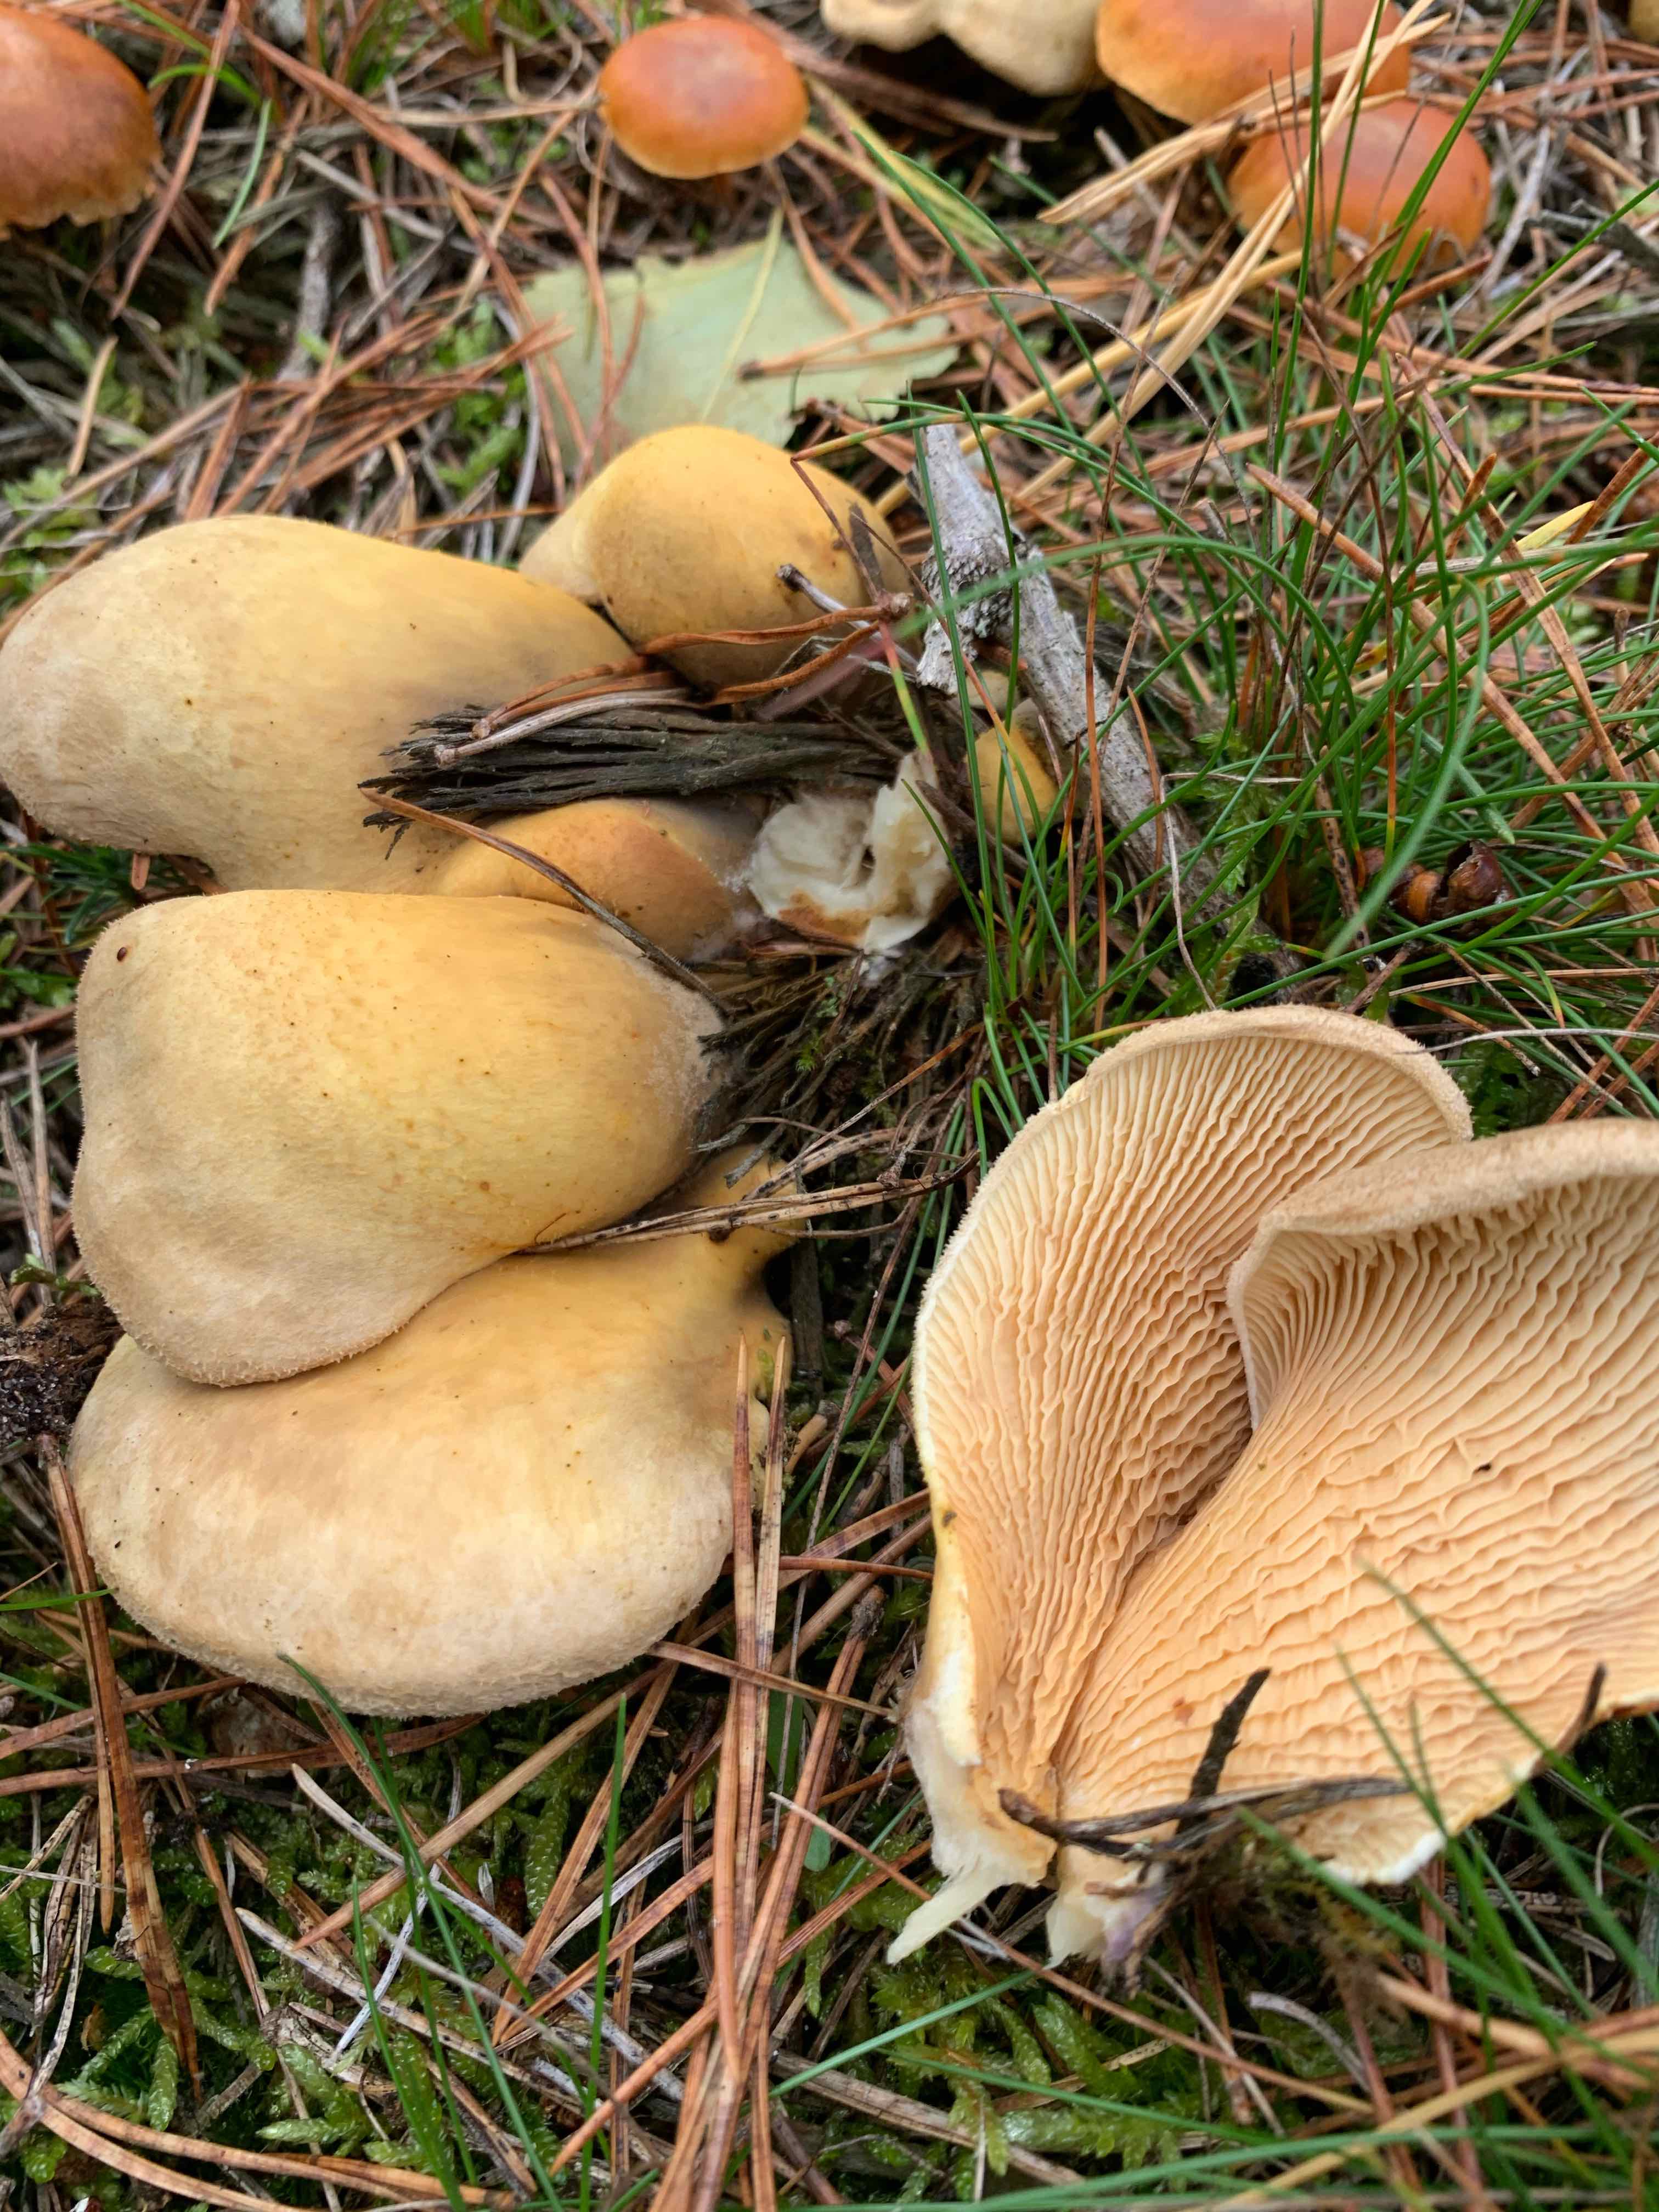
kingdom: Fungi
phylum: Basidiomycota
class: Agaricomycetes
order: Boletales
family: Tapinellaceae
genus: Tapinella
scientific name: Tapinella panuoides
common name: tømmer-viftesvamp
